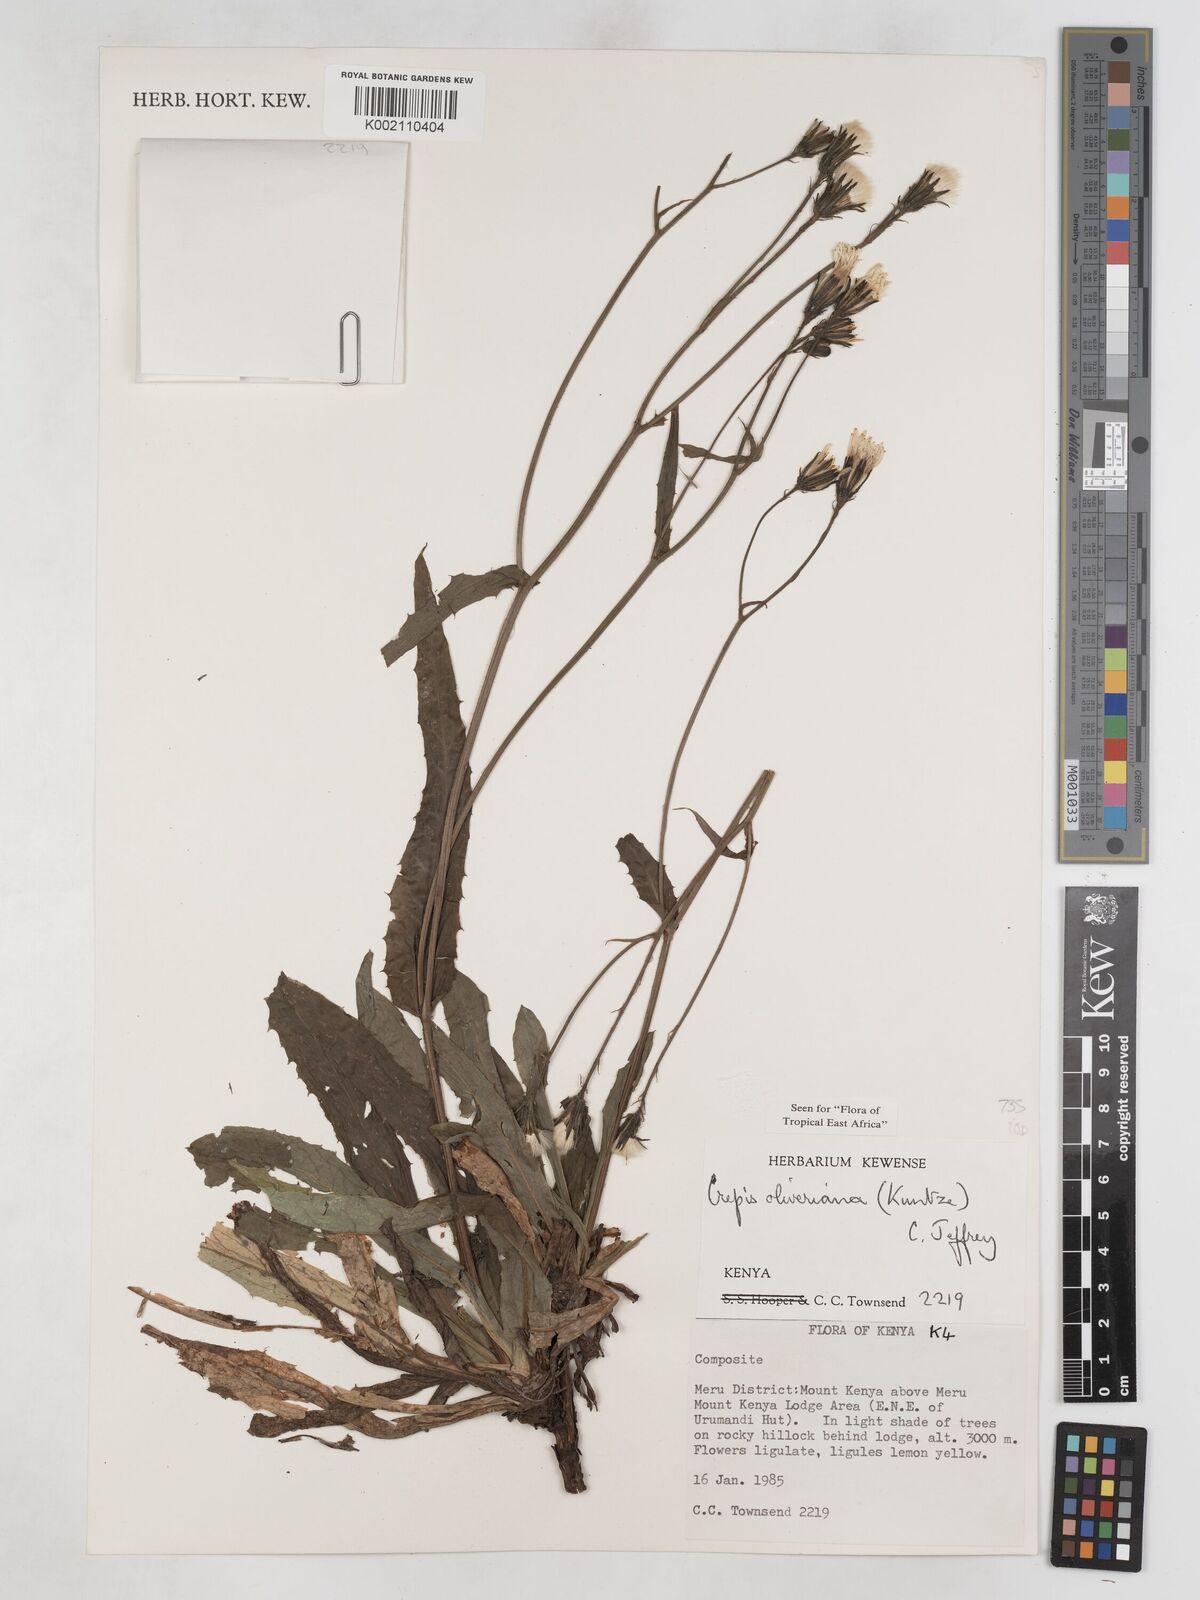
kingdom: Plantae
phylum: Tracheophyta
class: Magnoliopsida
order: Asterales
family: Asteraceae
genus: Crepis
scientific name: Crepis hypochoeridea
